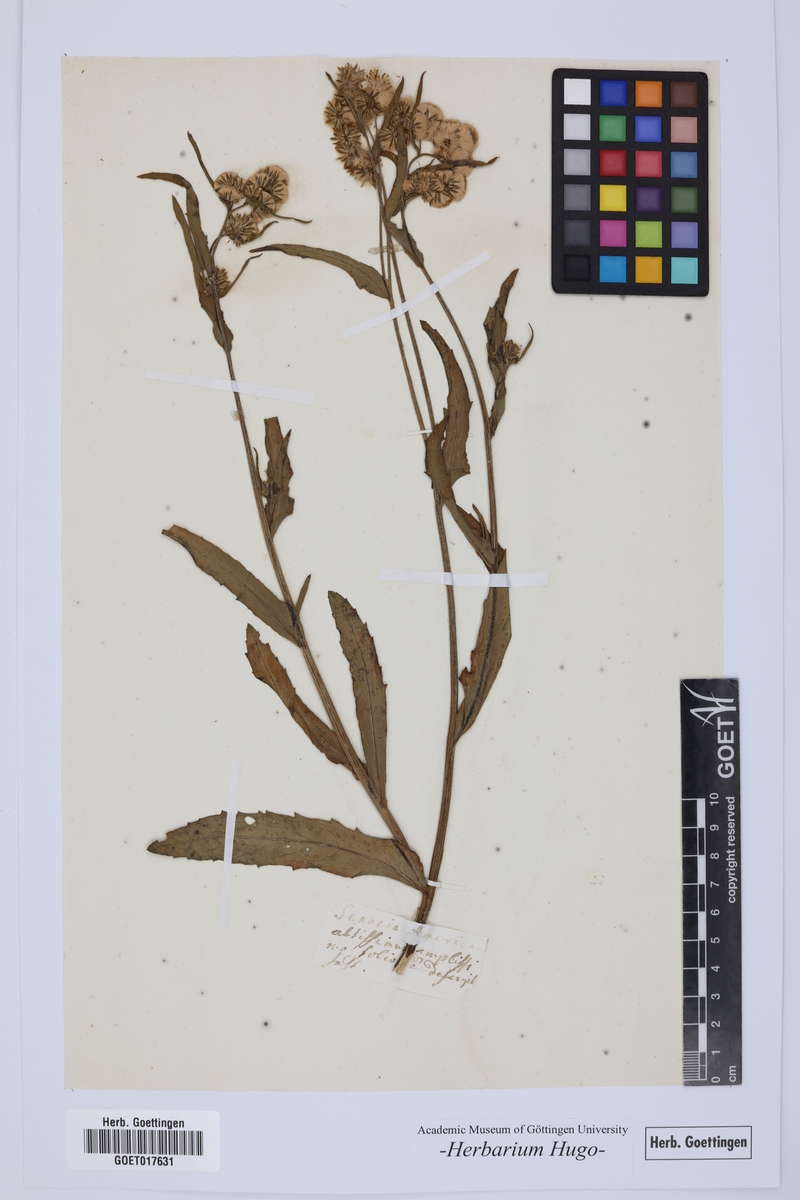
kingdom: Plantae
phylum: Tracheophyta
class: Magnoliopsida
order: Asterales
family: Asteraceae
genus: Senecio
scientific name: Senecio
